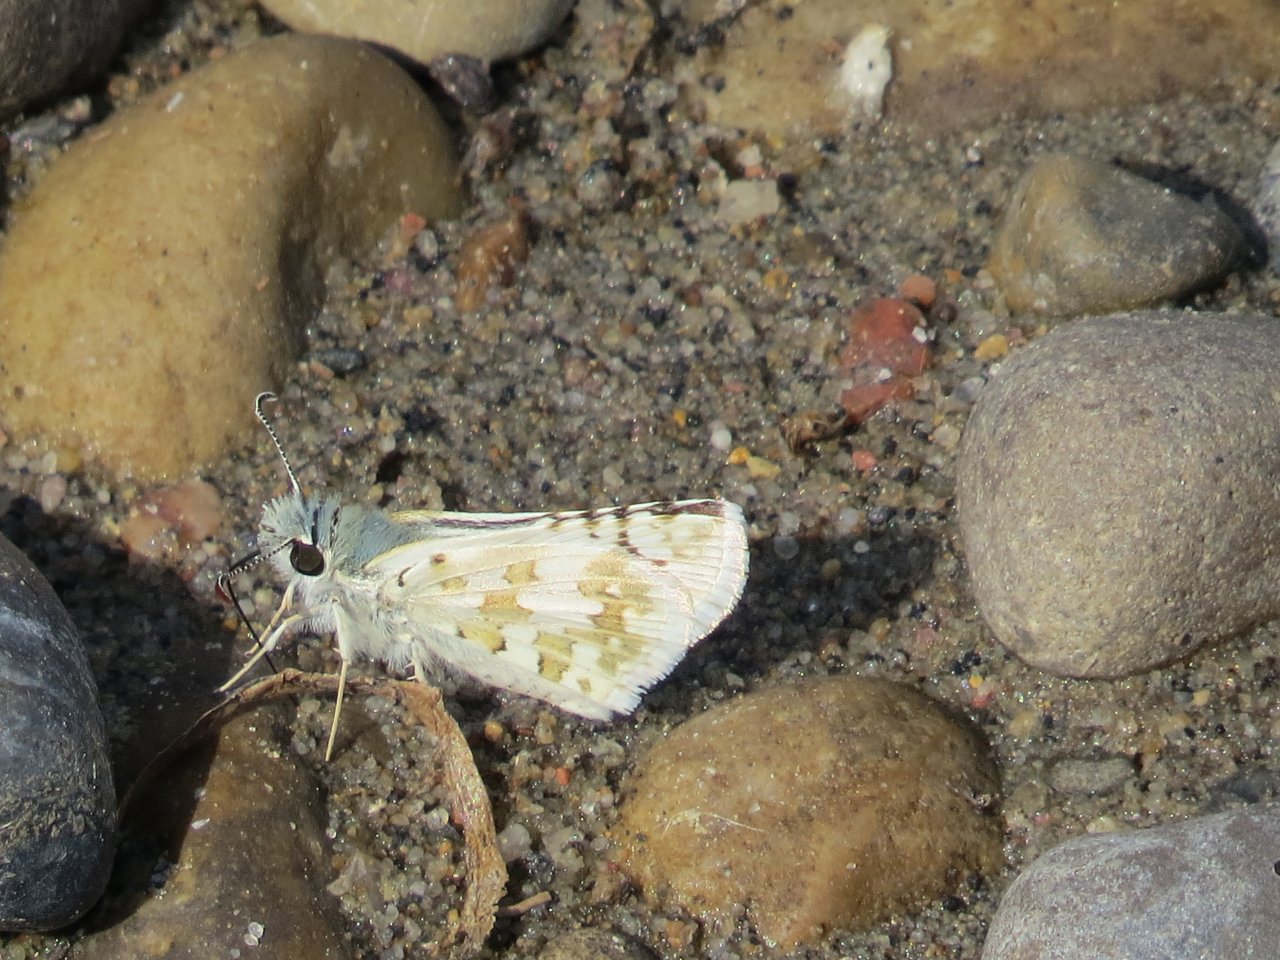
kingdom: Animalia
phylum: Arthropoda
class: Insecta
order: Lepidoptera
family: Hesperiidae
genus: Pyrgus
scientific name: Pyrgus communis
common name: Common Checkered-Skipper
